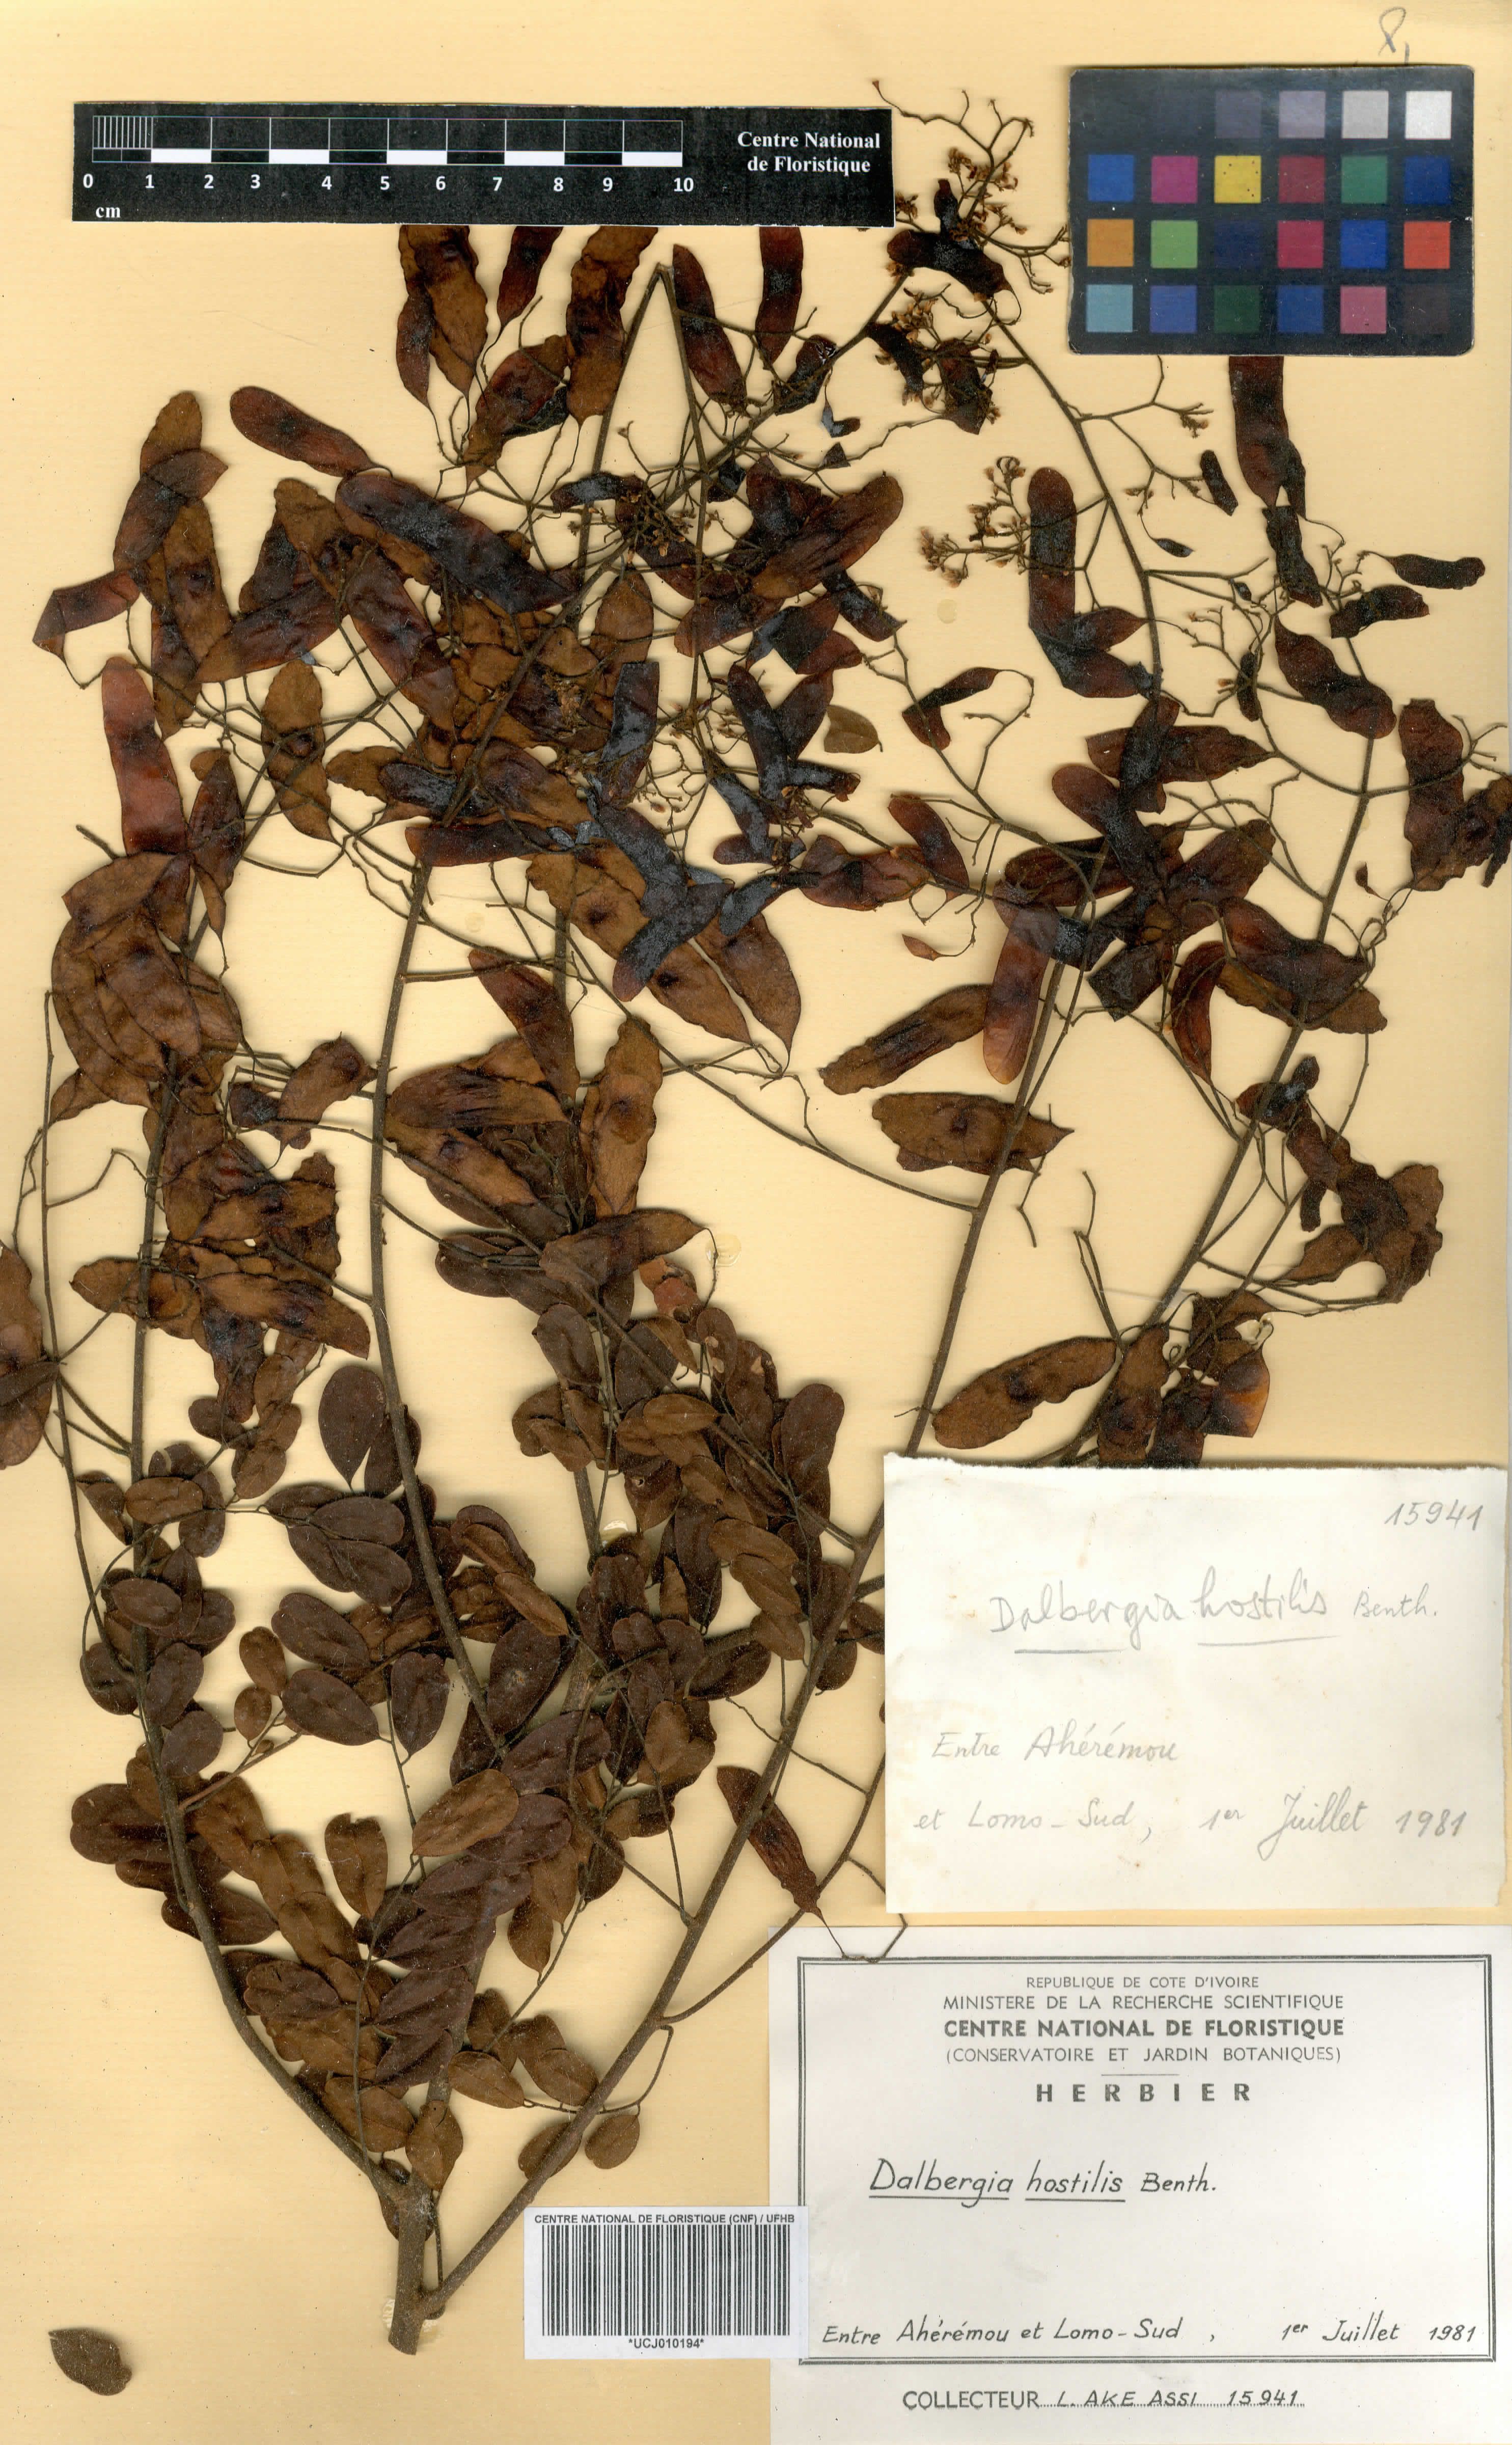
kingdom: Plantae
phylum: Tracheophyta
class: Magnoliopsida
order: Fabales
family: Fabaceae
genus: Dalbergia
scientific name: Dalbergia hostilis
